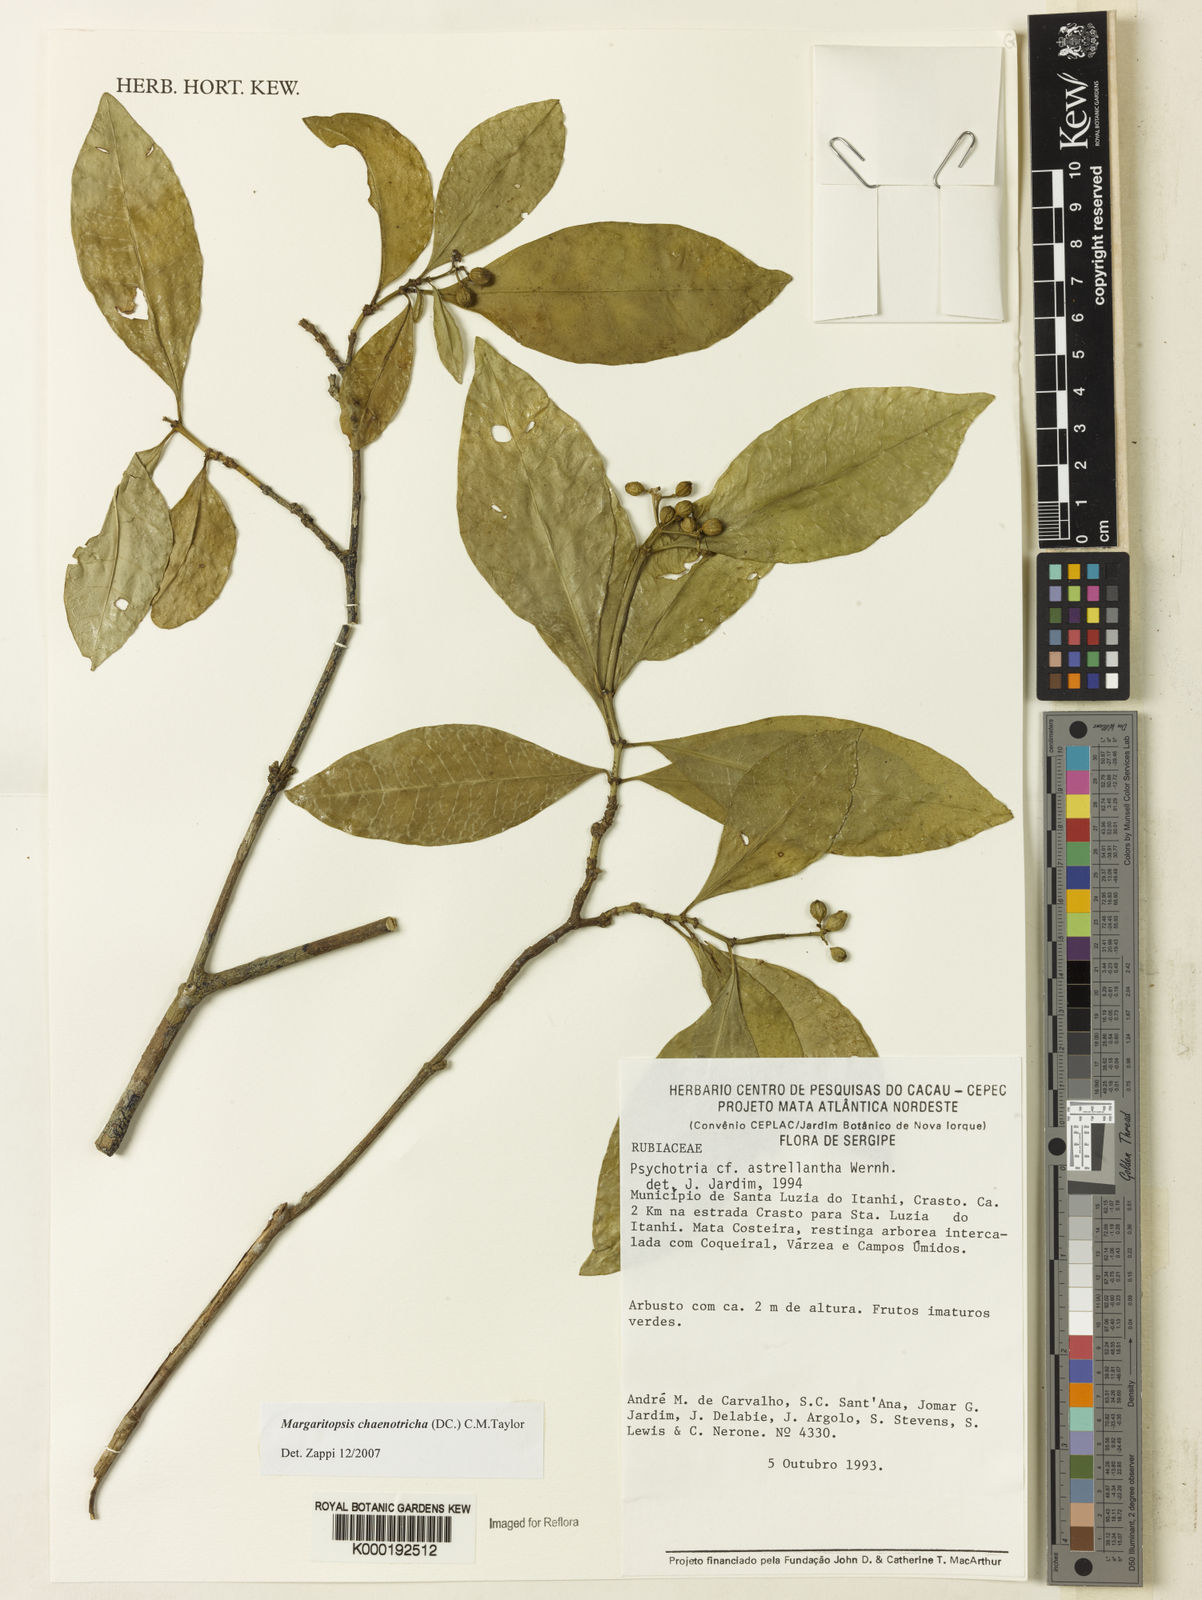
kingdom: Plantae
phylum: Tracheophyta
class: Magnoliopsida
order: Gentianales
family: Rubiaceae
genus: Eumachia
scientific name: Eumachia chaenotricha
